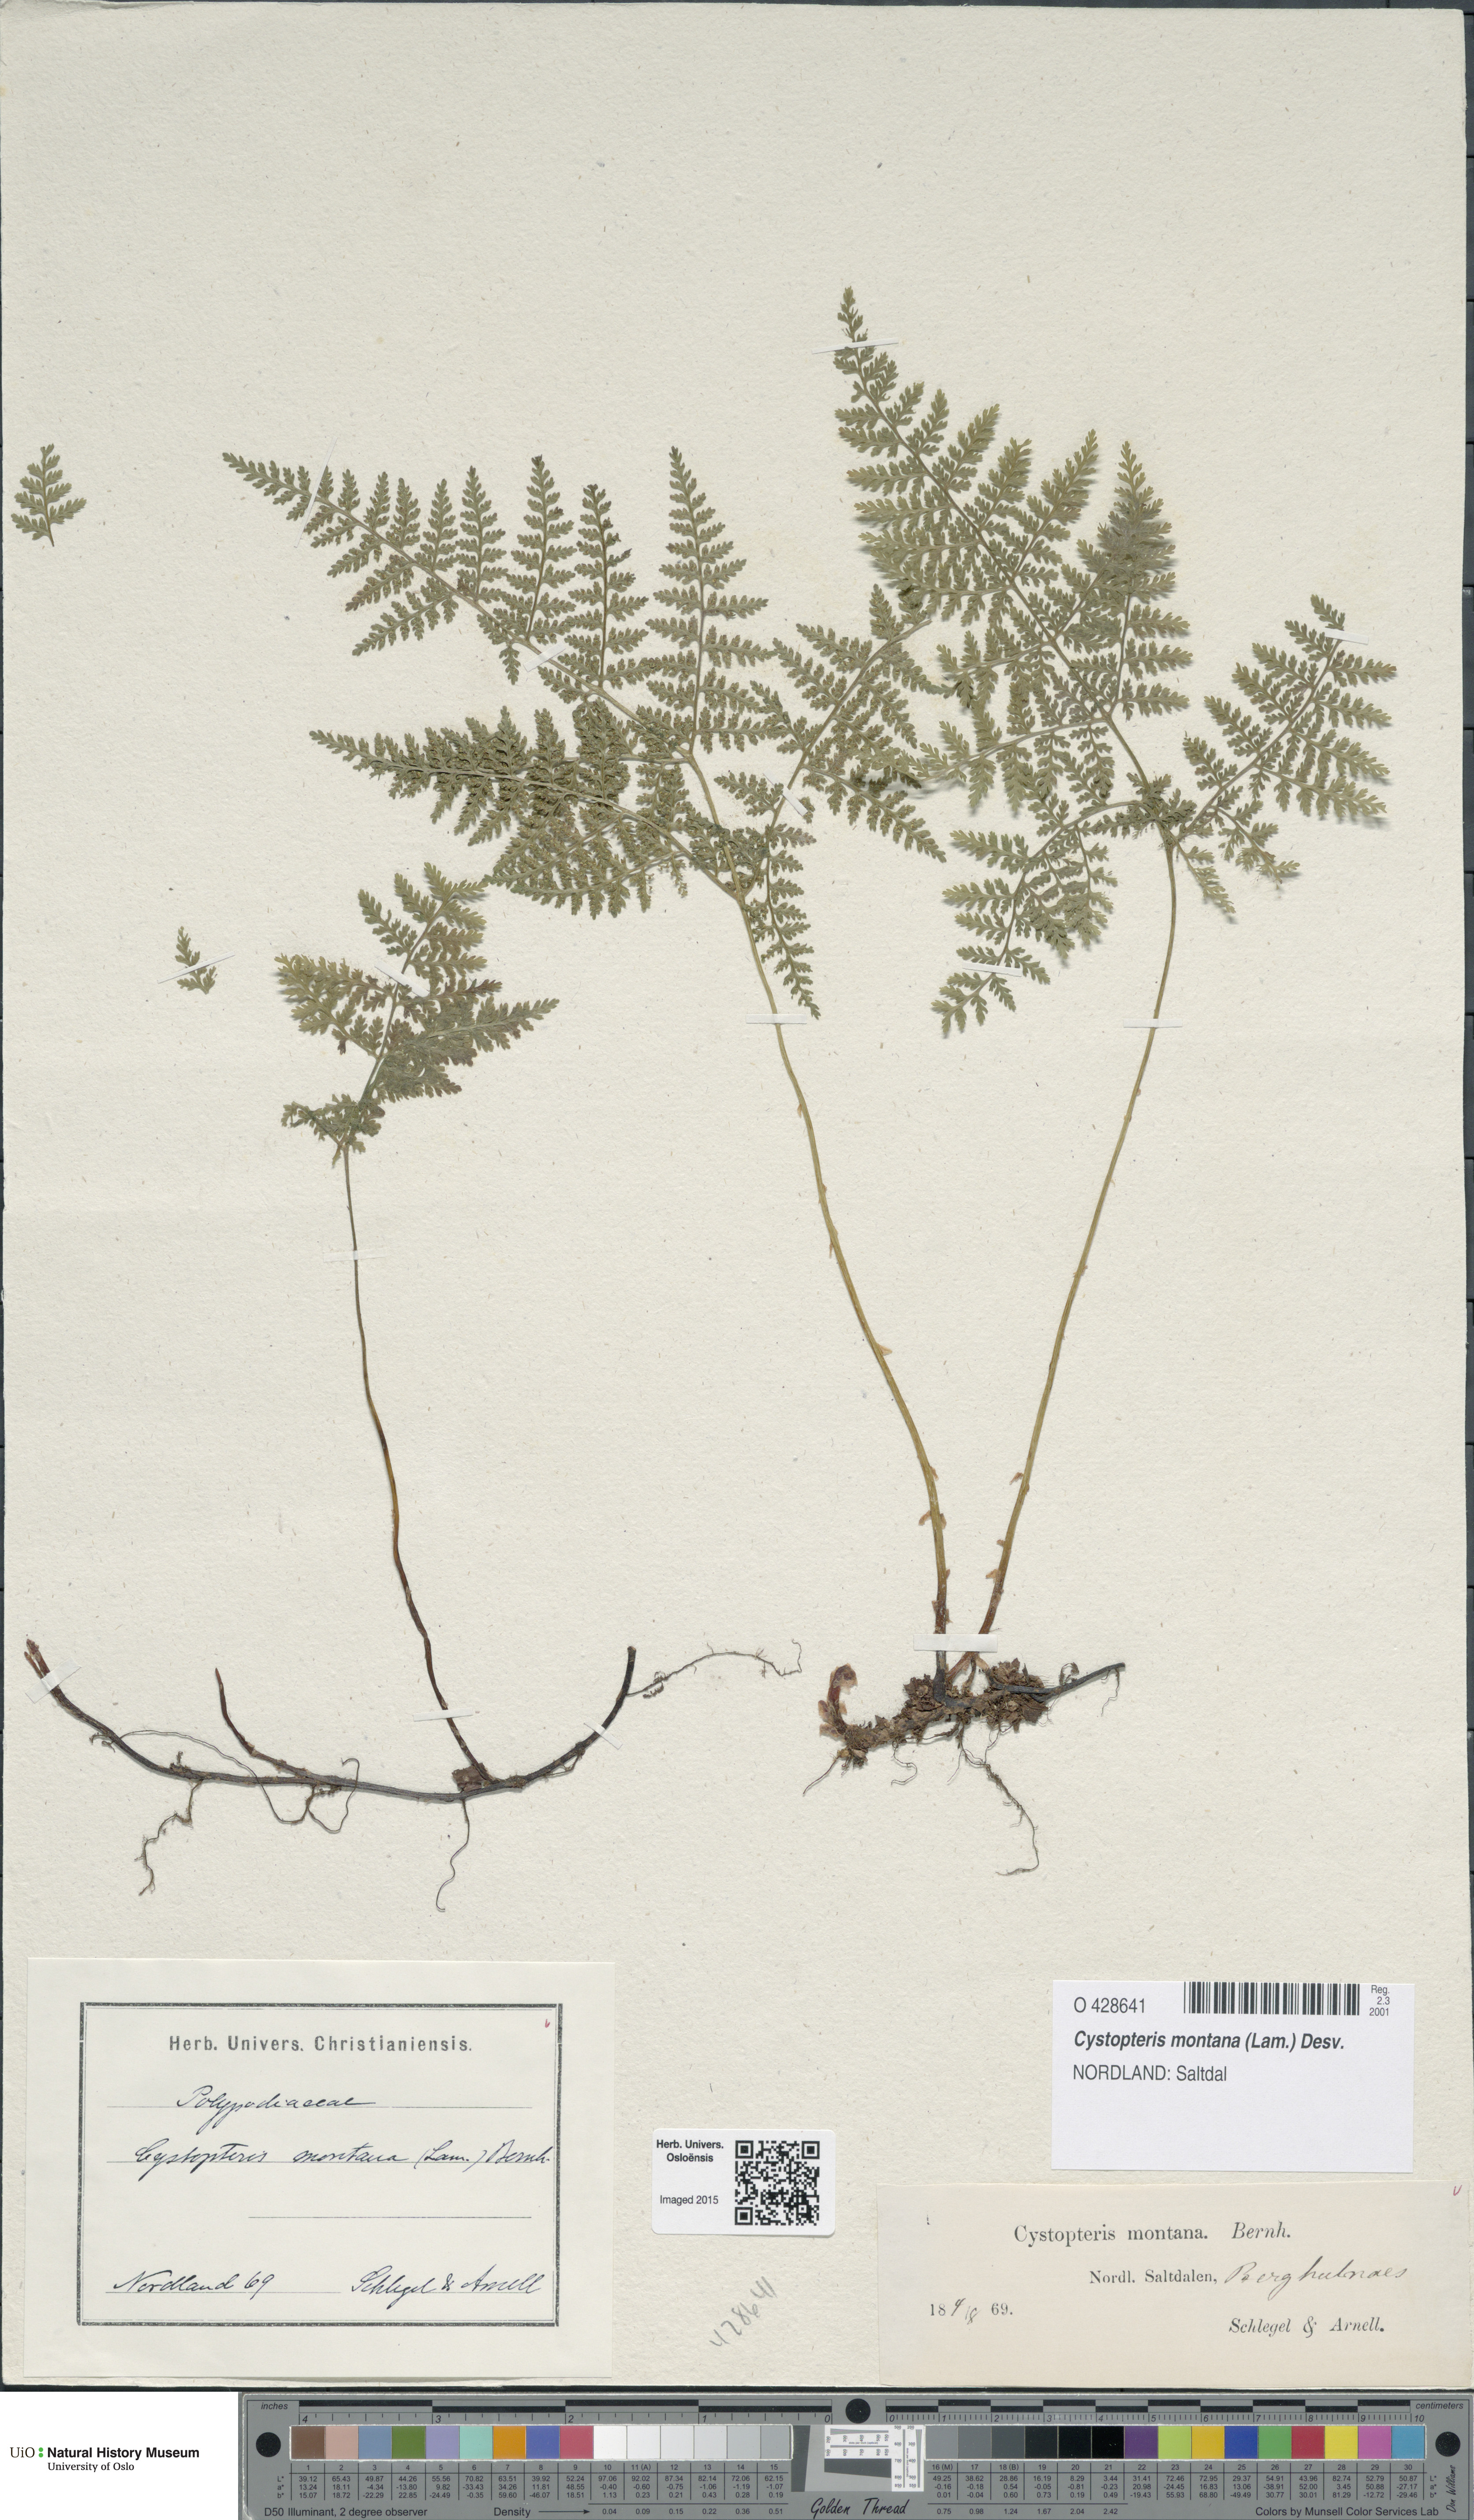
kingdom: Plantae
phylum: Tracheophyta
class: Polypodiopsida
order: Polypodiales
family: Cystopteridaceae
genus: Cystopteris
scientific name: Cystopteris montana
